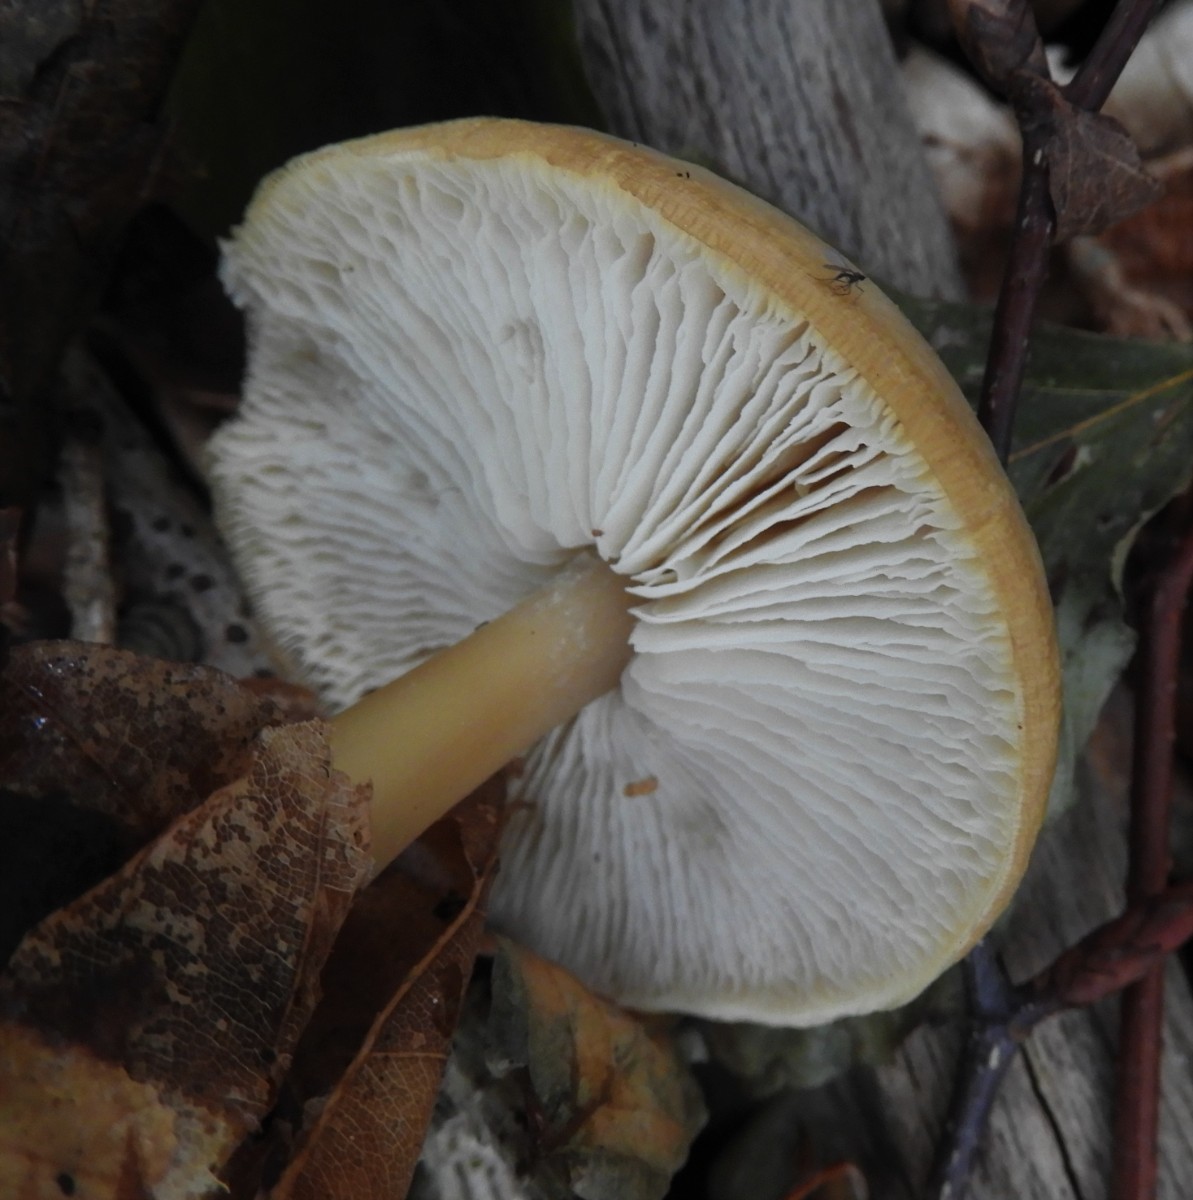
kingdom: Fungi
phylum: Basidiomycota
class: Agaricomycetes
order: Agaricales
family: Omphalotaceae
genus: Rhodocollybia
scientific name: Rhodocollybia asema
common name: horngrå fladhat
